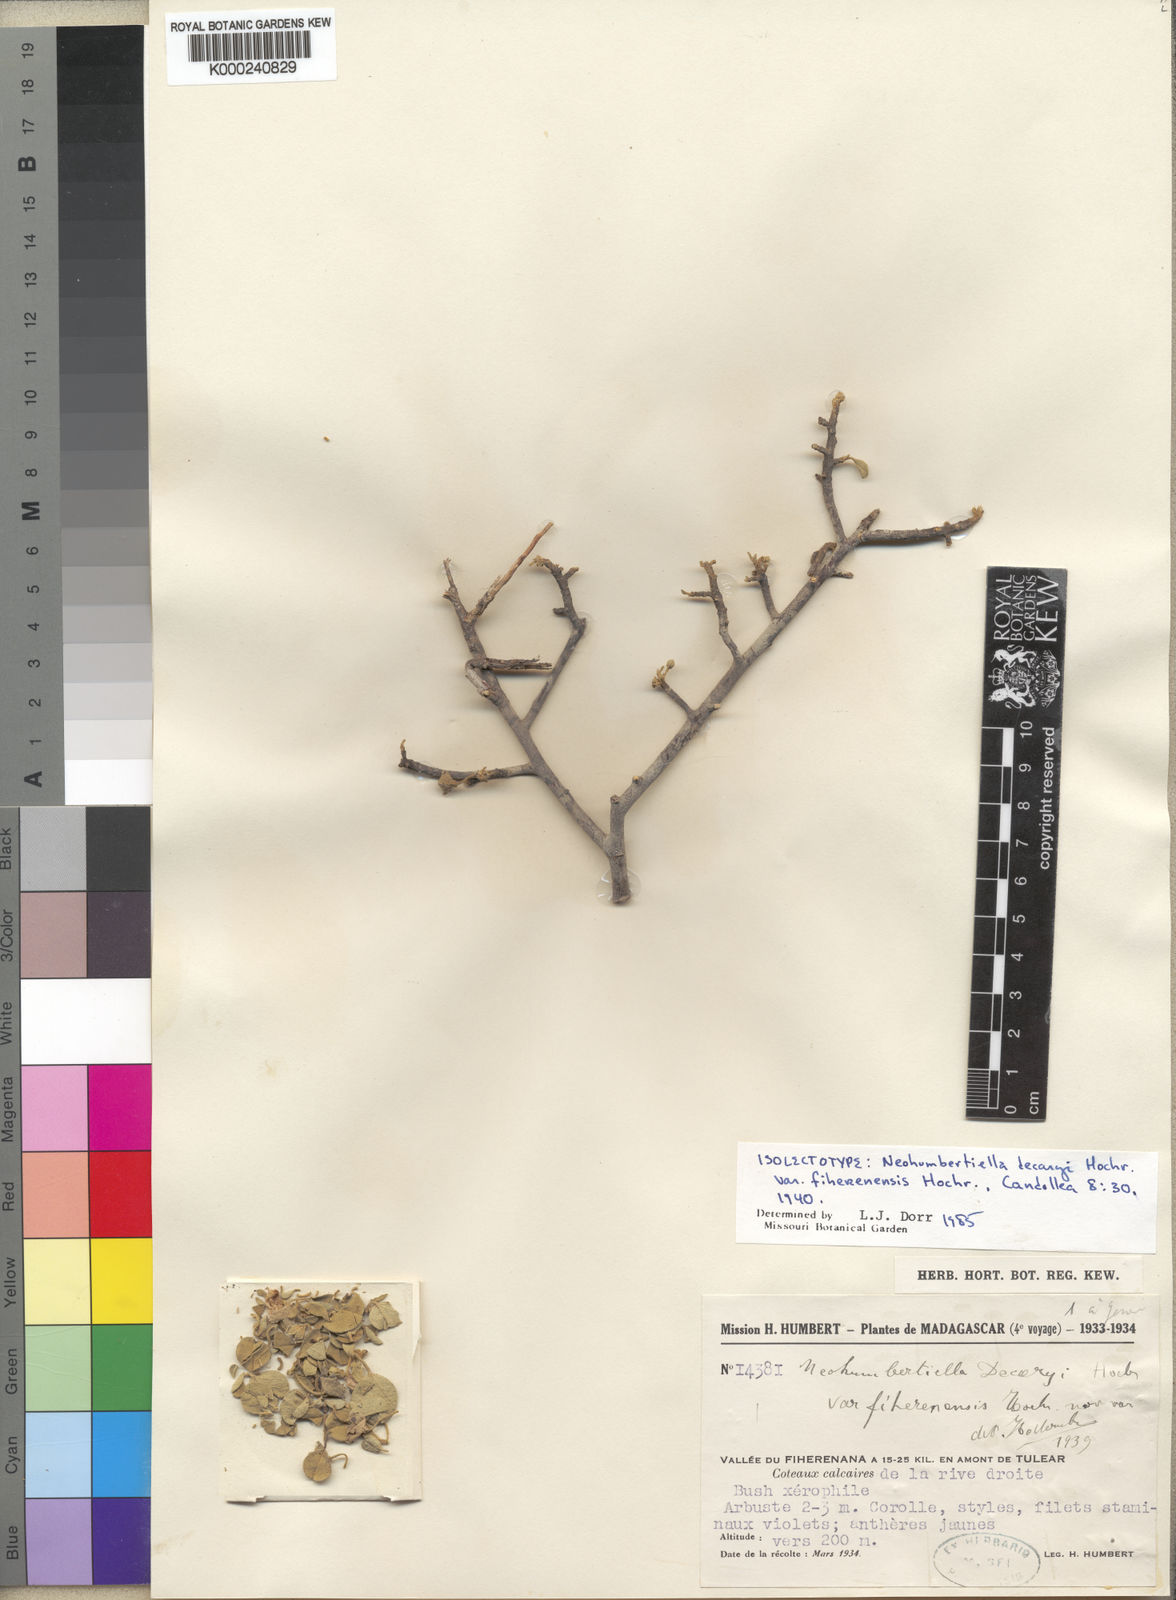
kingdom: Plantae
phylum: Tracheophyta
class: Magnoliopsida
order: Malvales
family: Malvaceae
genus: Humbertiella
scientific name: Humbertiella decaryi
